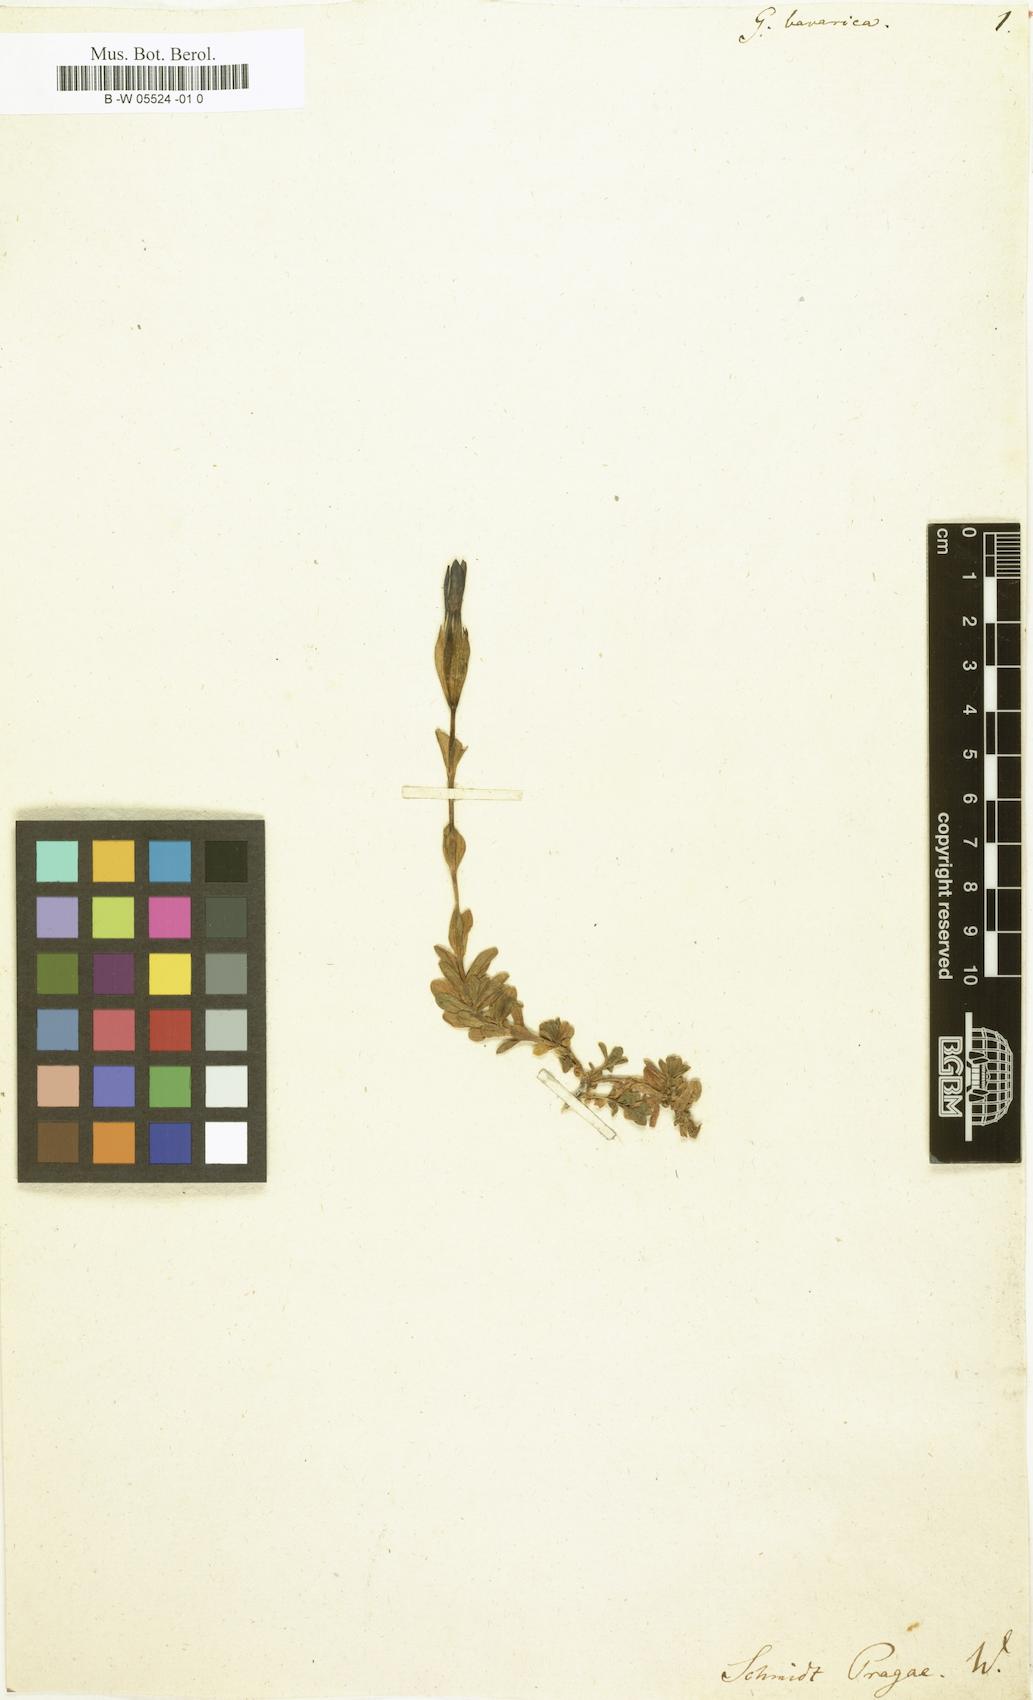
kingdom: Plantae
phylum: Tracheophyta
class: Magnoliopsida
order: Gentianales
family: Gentianaceae
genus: Gentiana
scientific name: Gentiana bavarica
